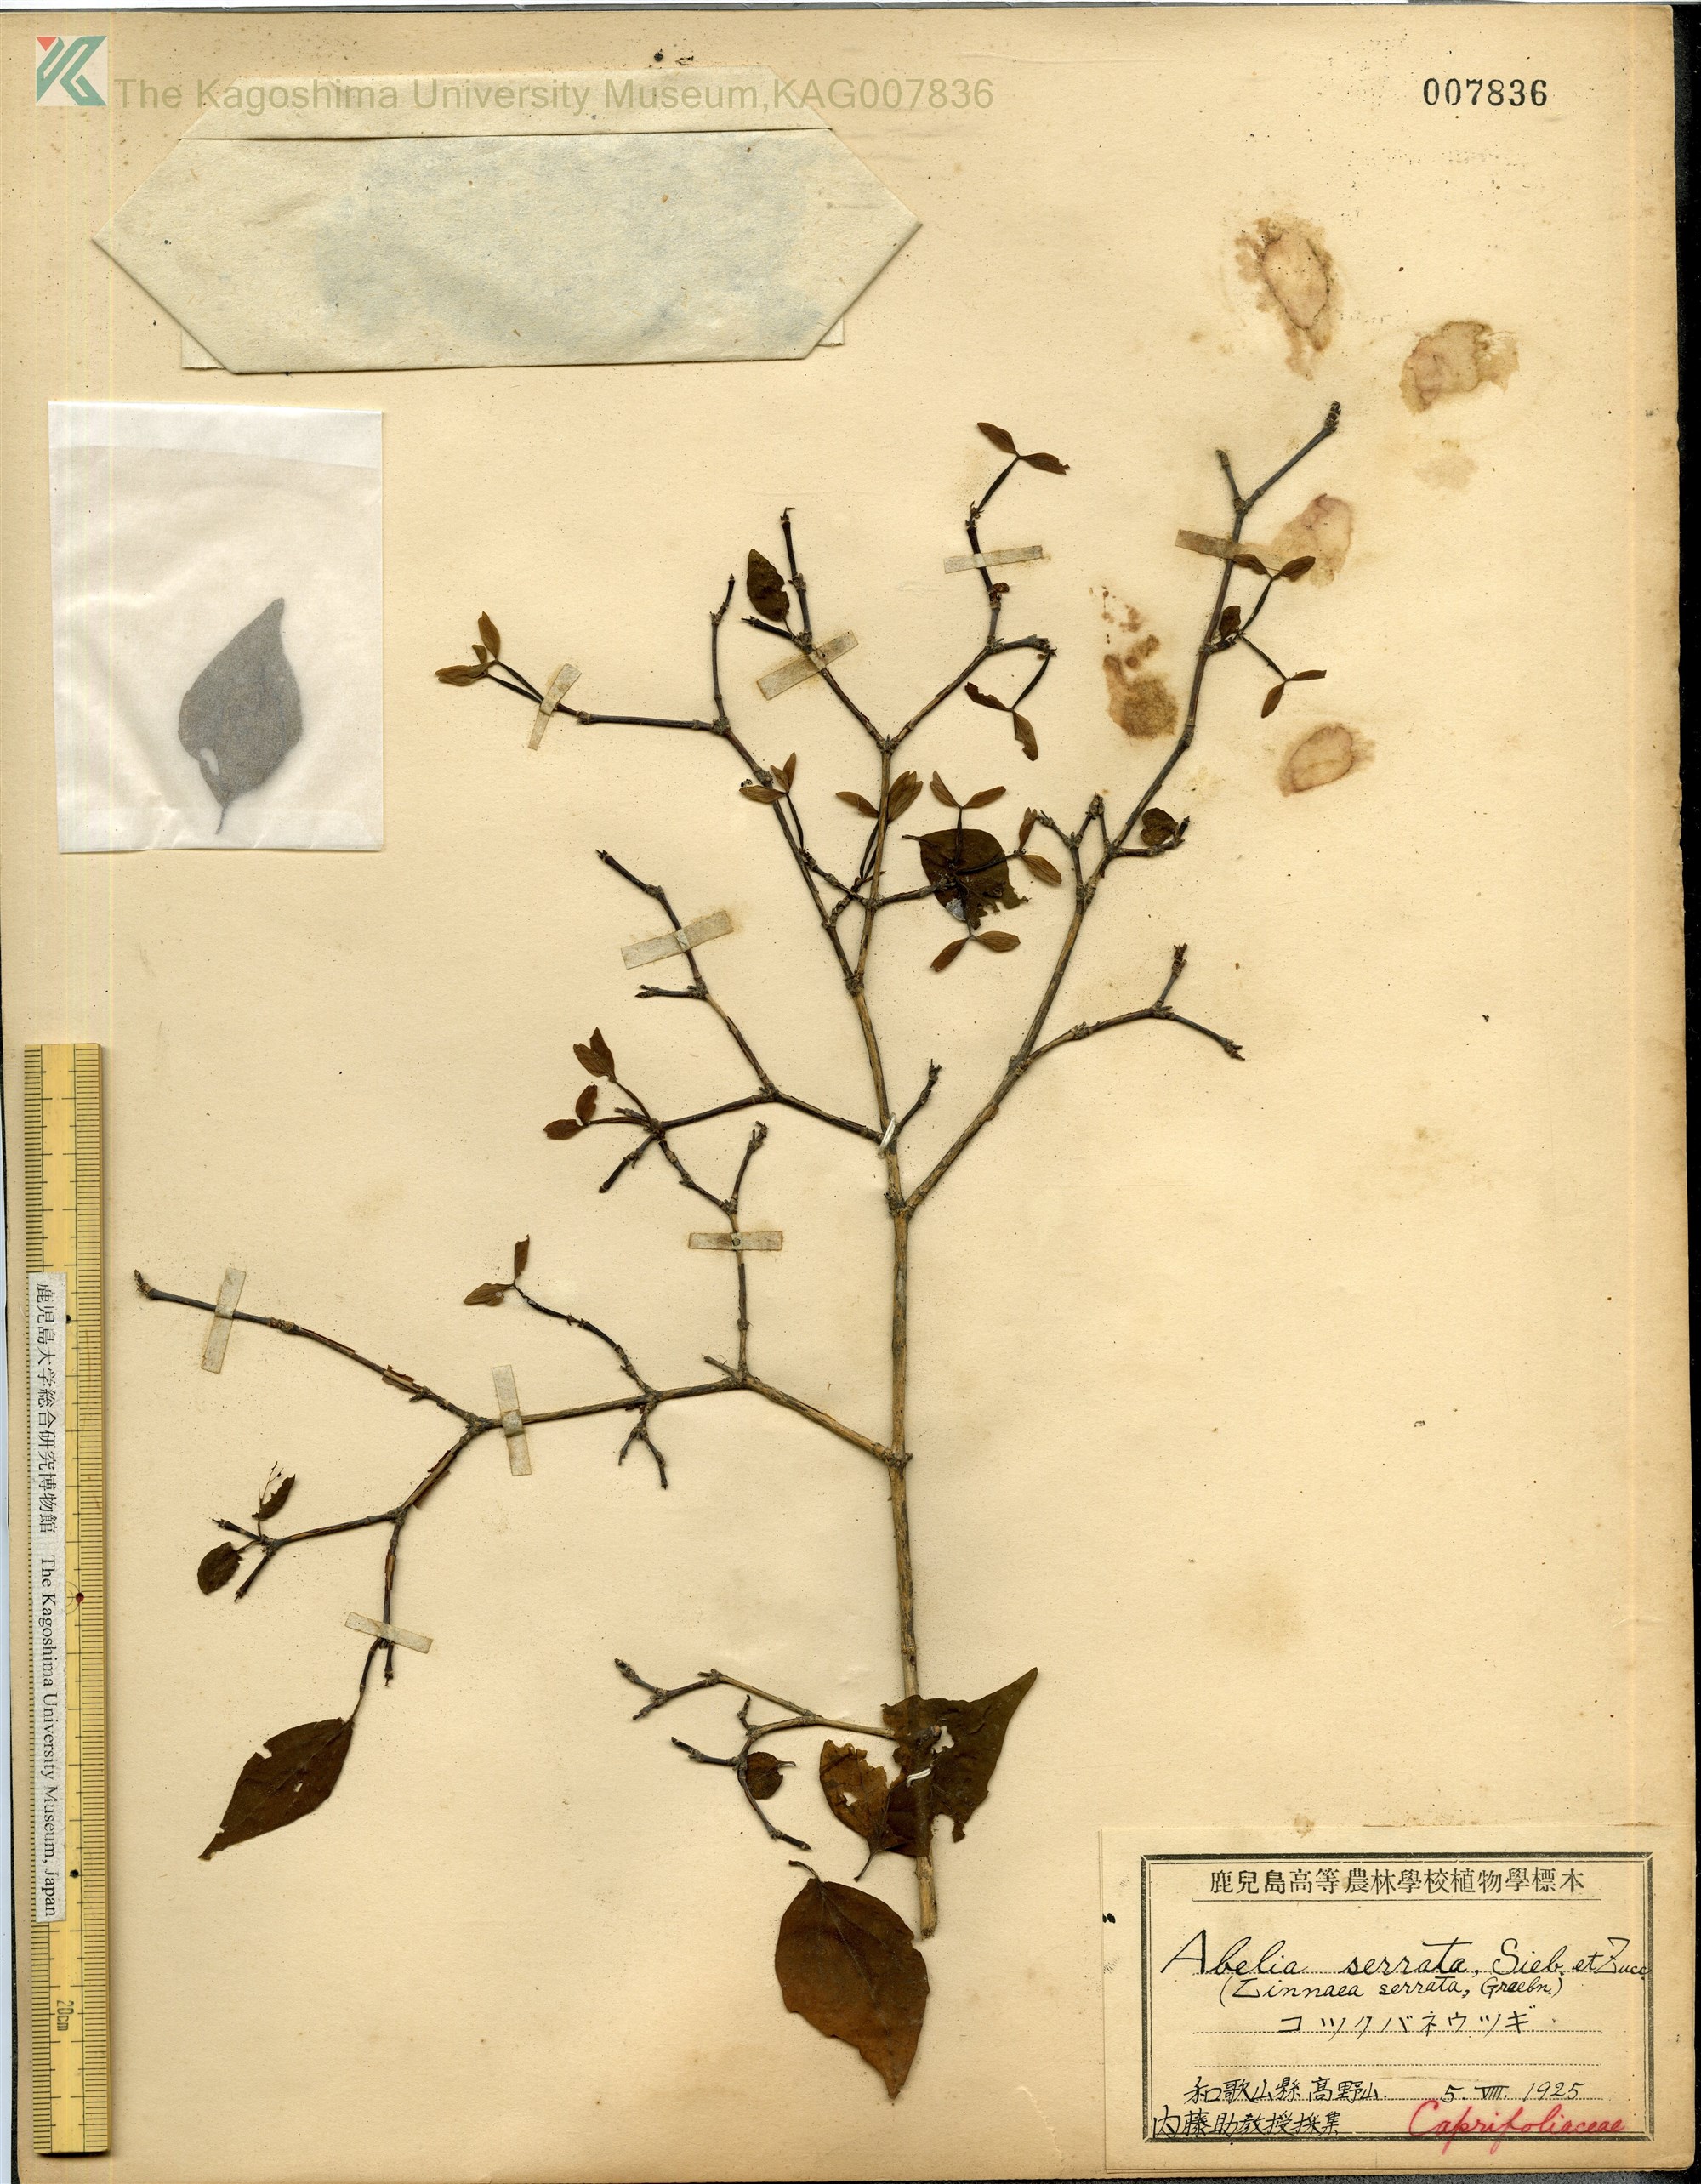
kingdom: Plantae
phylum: Tracheophyta
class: Magnoliopsida
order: Dipsacales
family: Caprifoliaceae
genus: Diabelia
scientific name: Diabelia serrata
